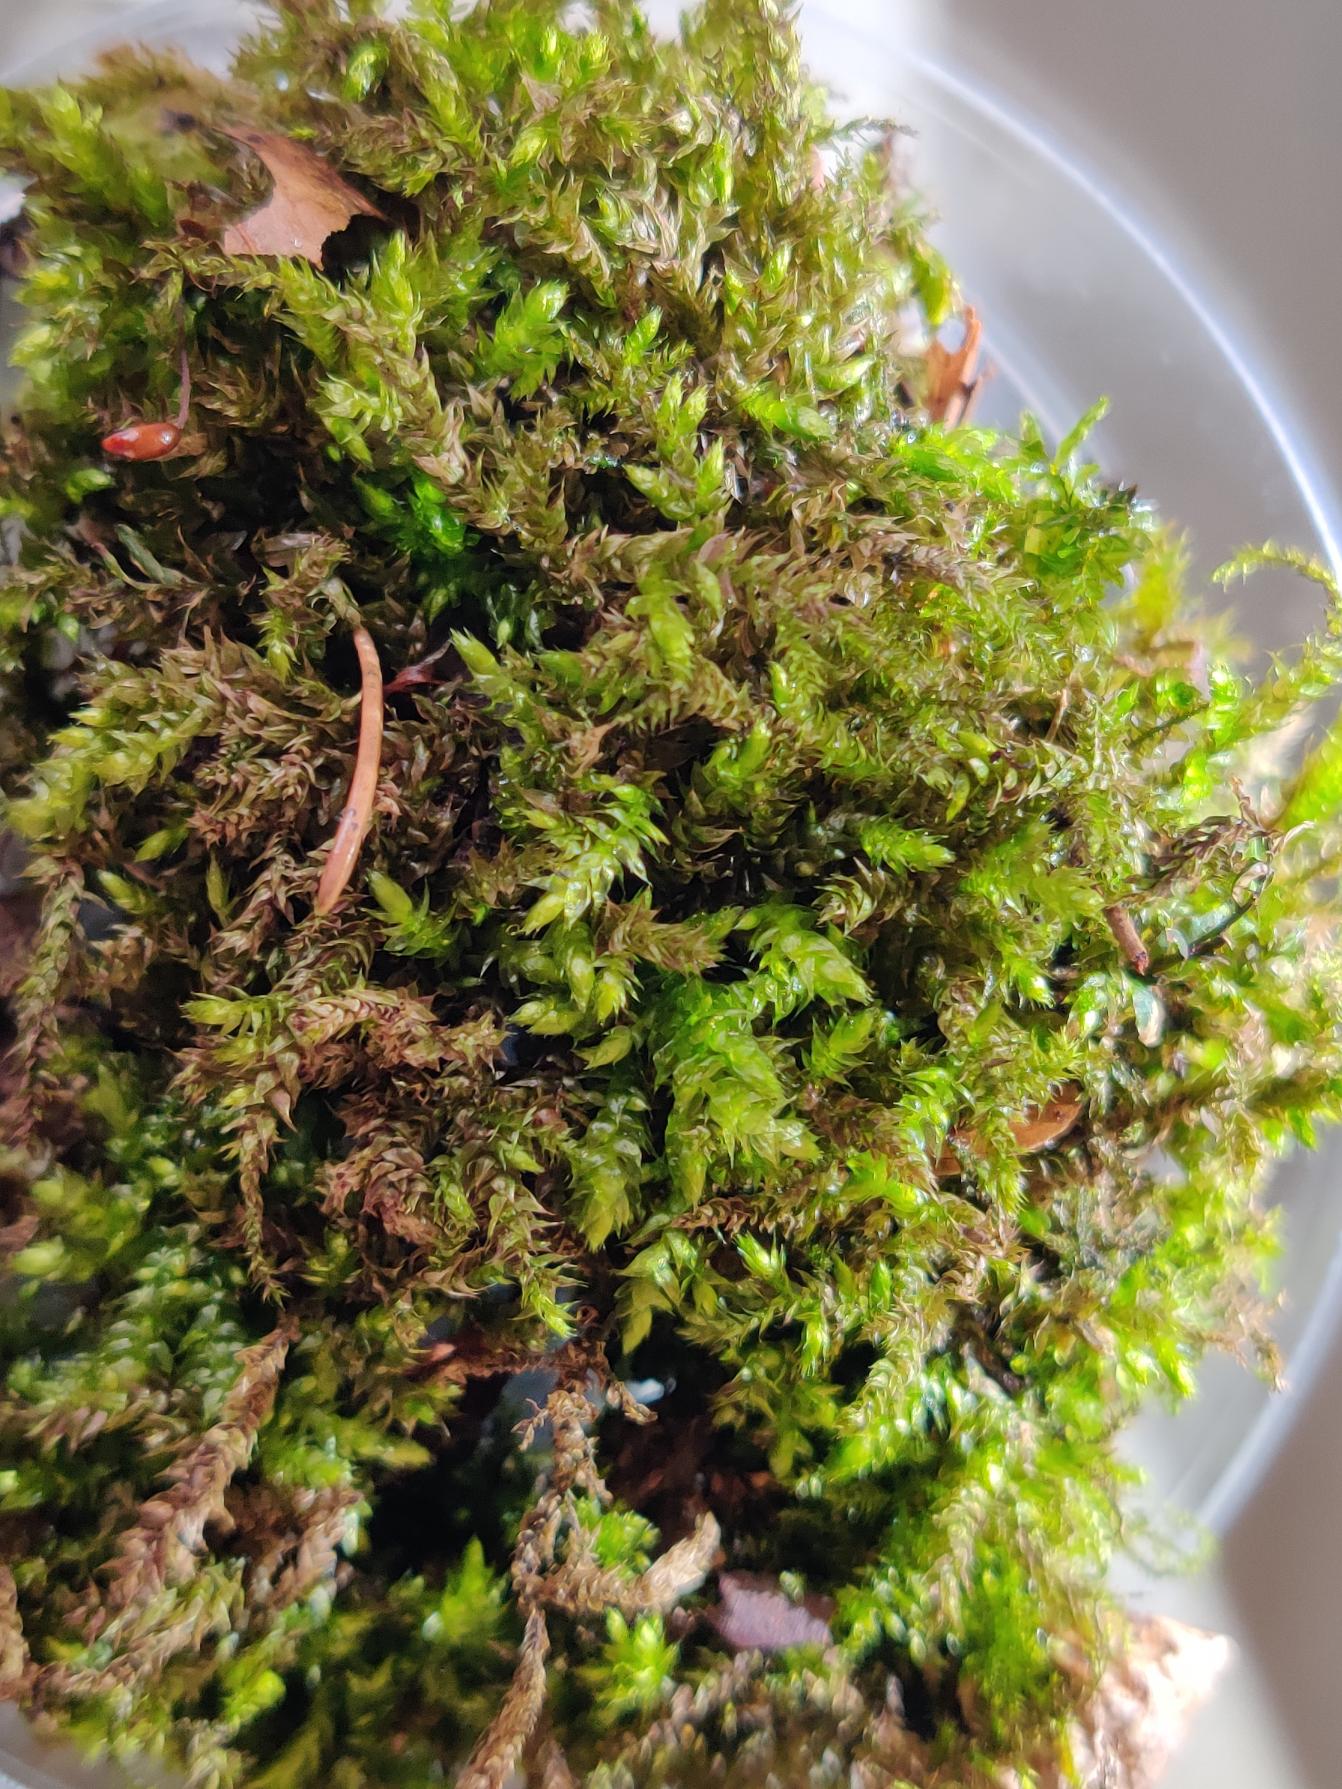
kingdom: Plantae
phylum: Bryophyta
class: Bryopsida
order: Hypnales
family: Brachytheciaceae
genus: Brachythecium
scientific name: Brachythecium rutabulum
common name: Almindelig kortkapsel
